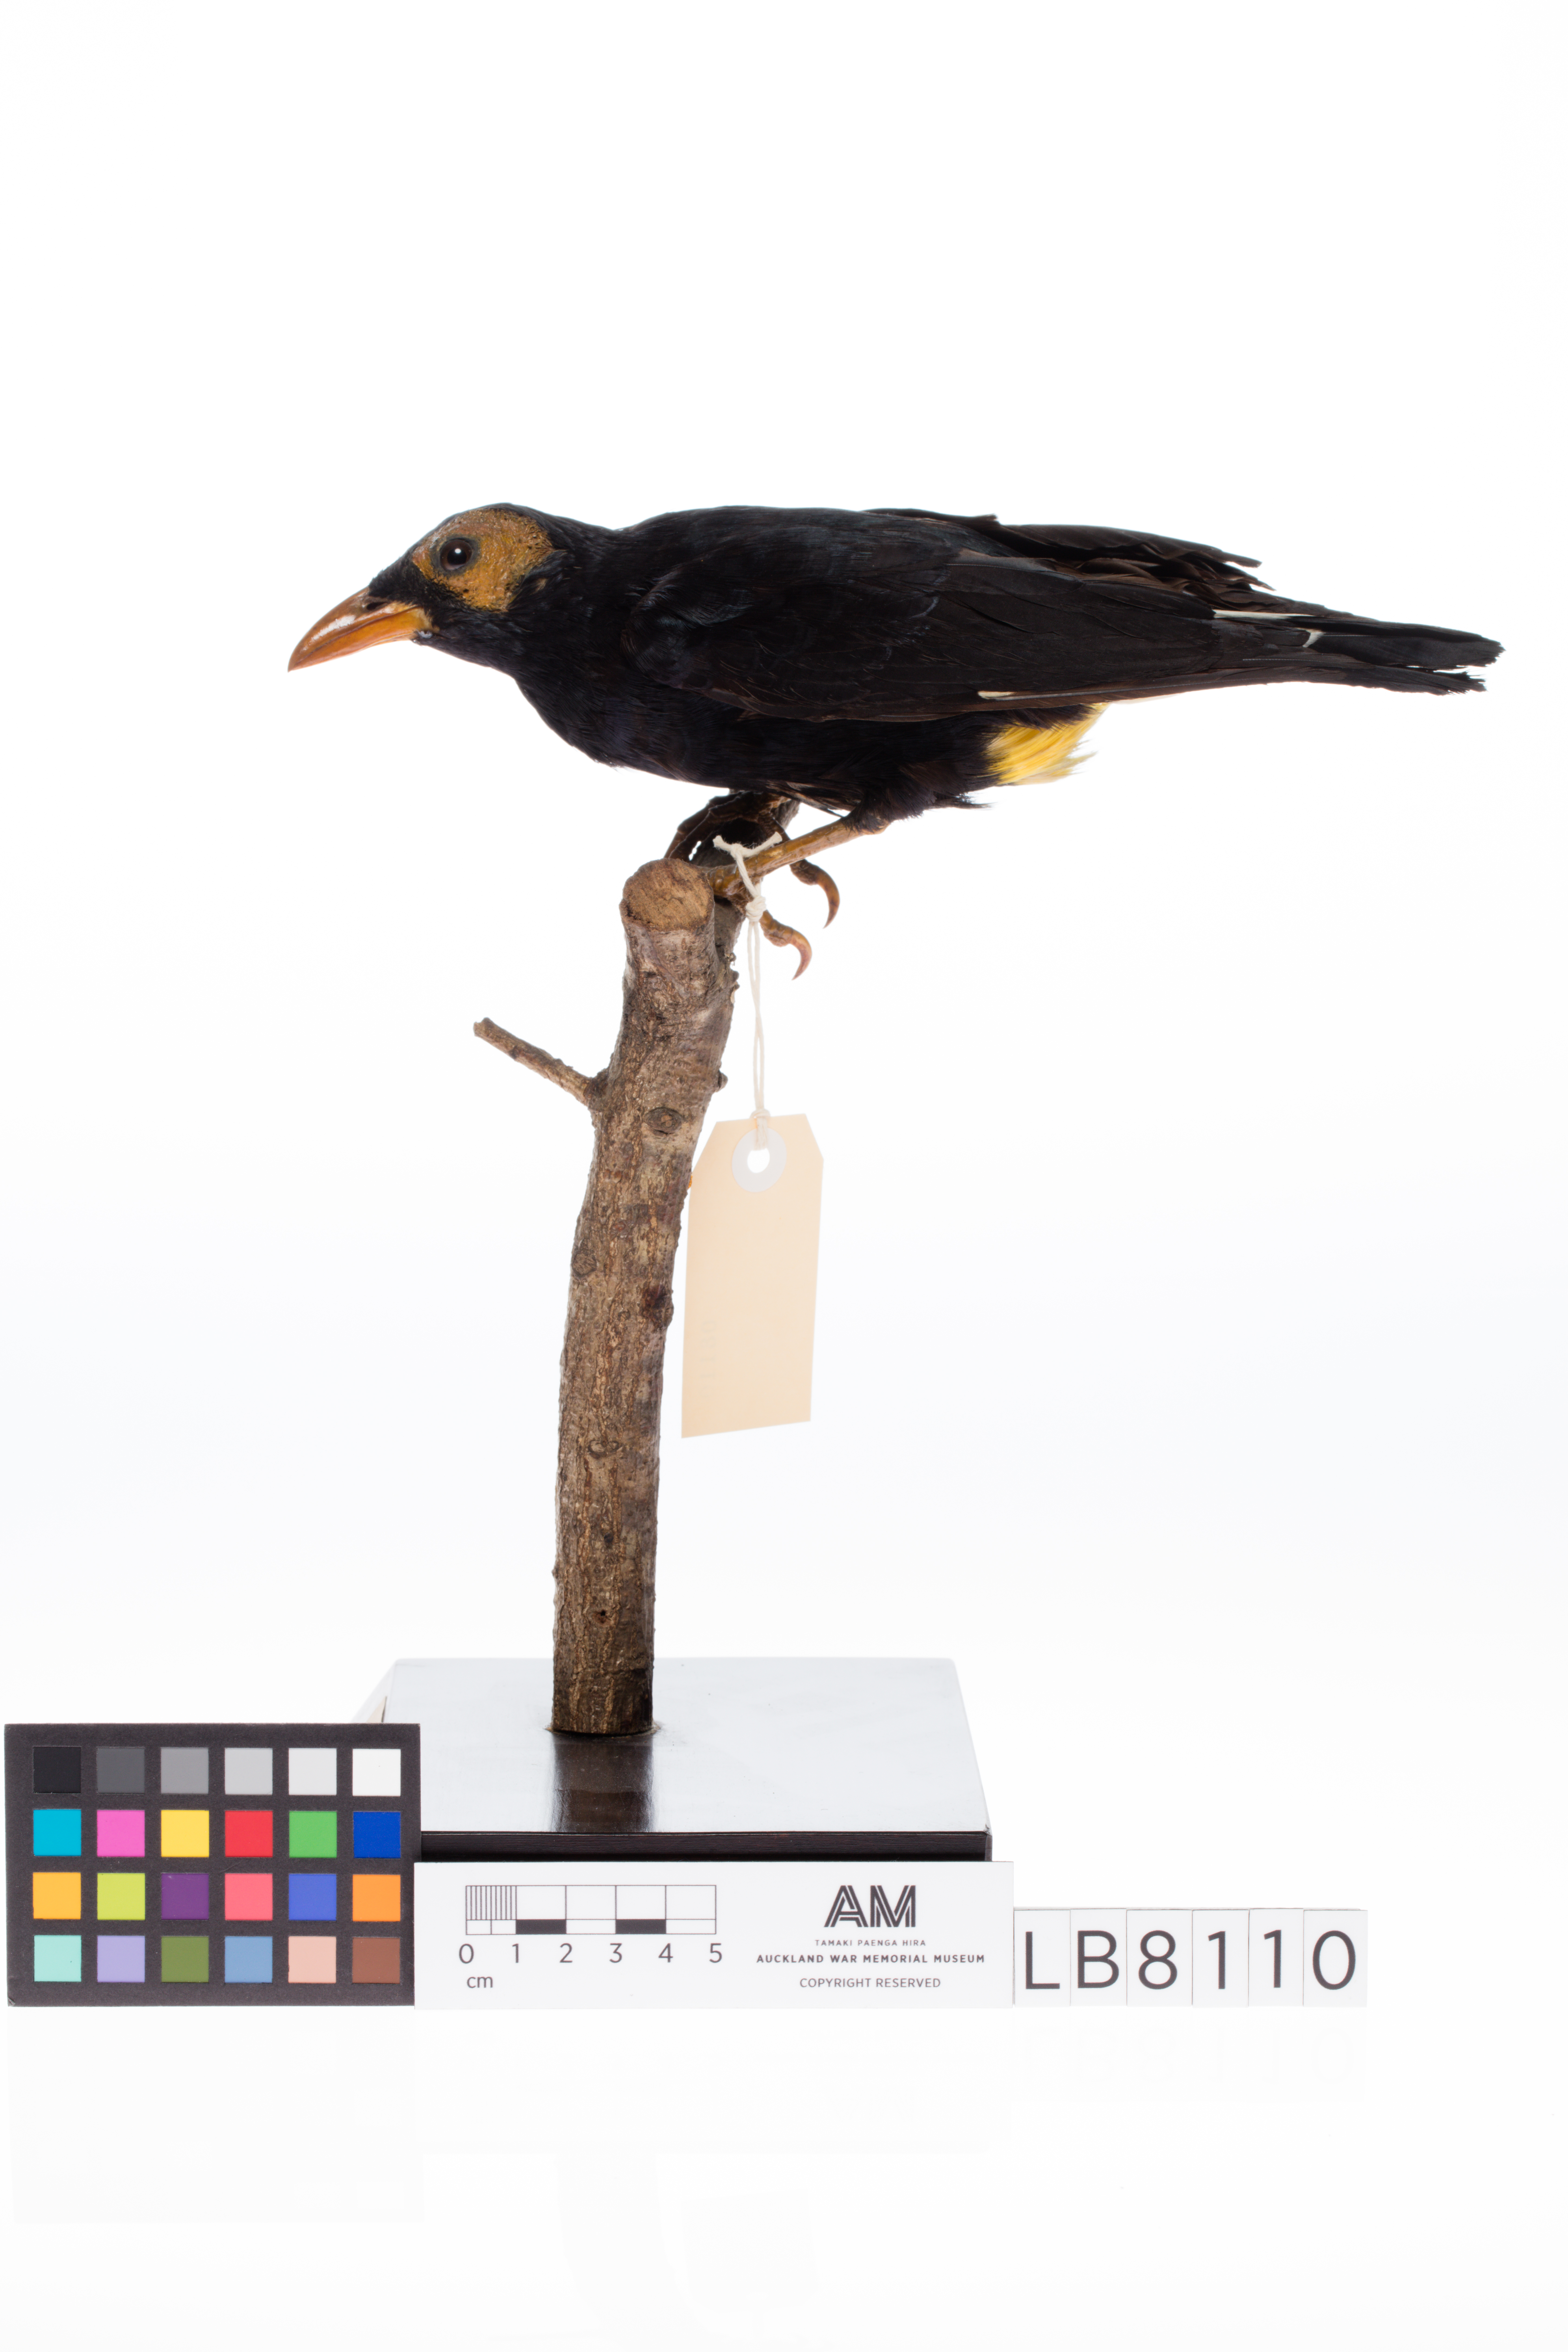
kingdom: Animalia
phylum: Chordata
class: Aves
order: Passeriformes
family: Sturnidae
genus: Mino
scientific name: Mino dumontii
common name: Yellow-faced myna
